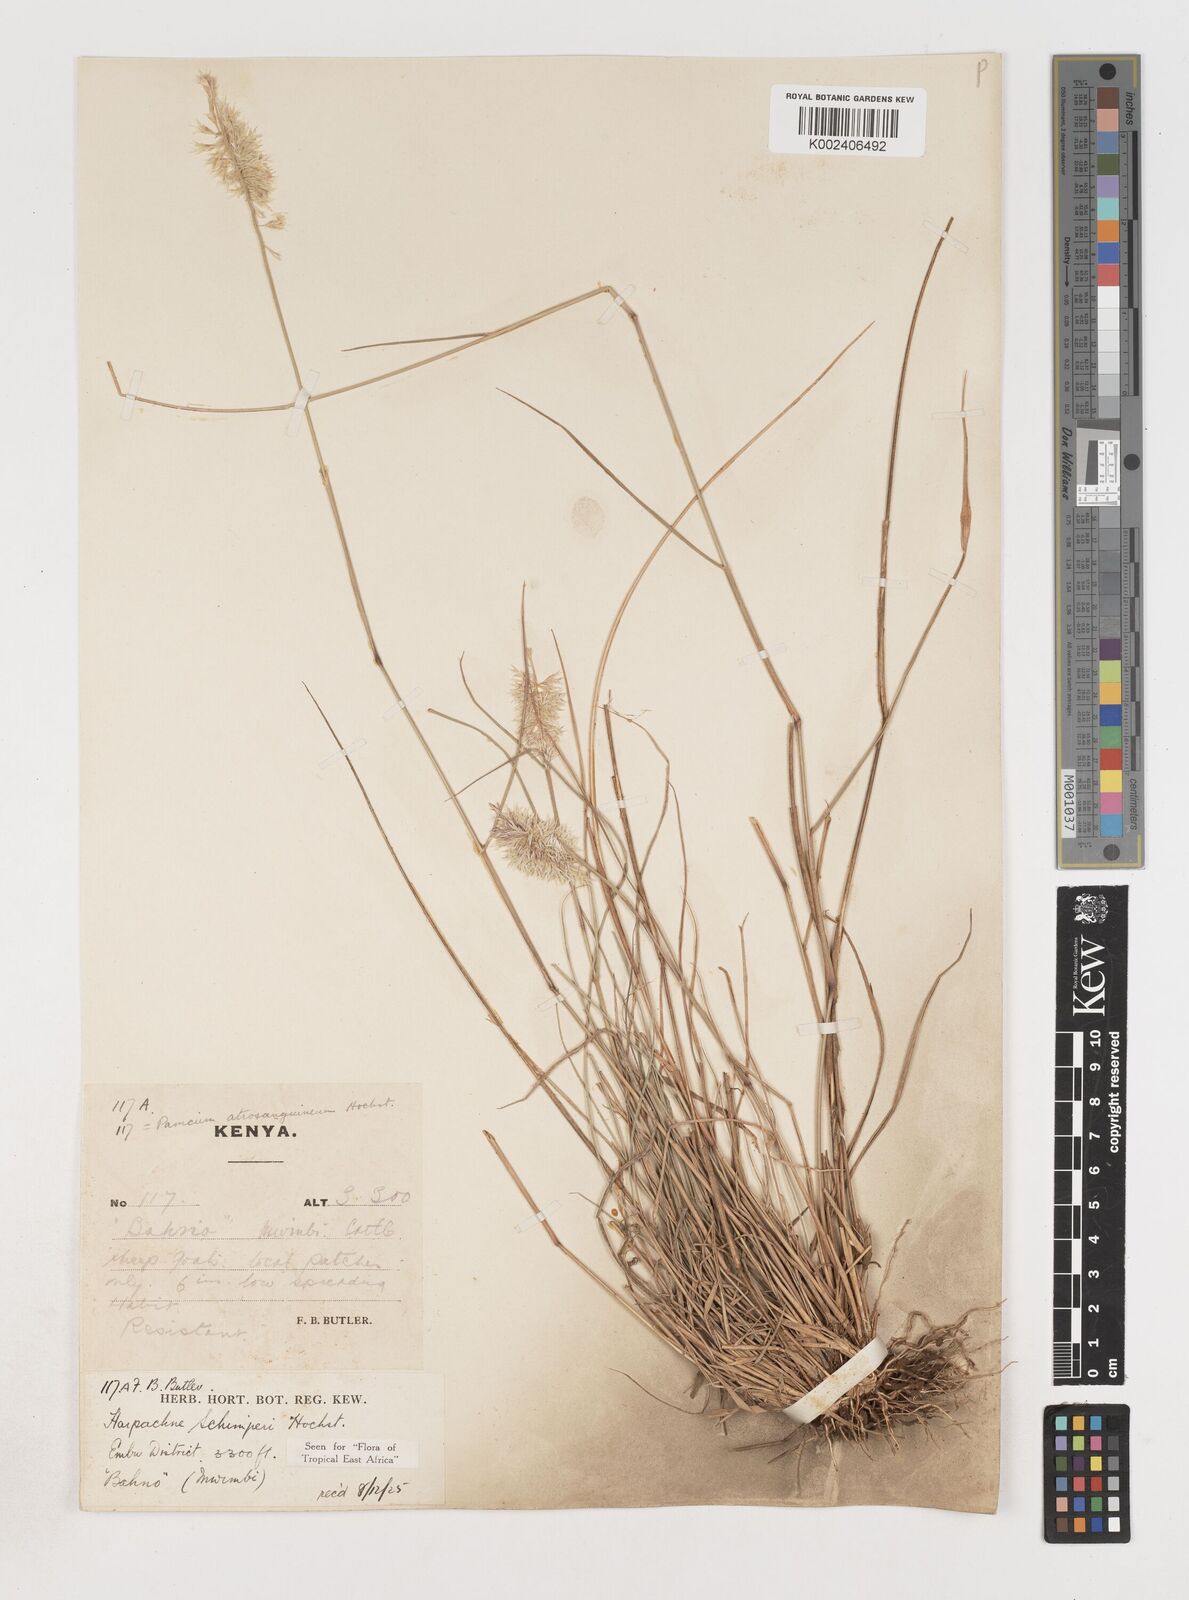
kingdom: Plantae
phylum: Tracheophyta
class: Liliopsida
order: Poales
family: Poaceae
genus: Harpachne
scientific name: Harpachne schimperi
